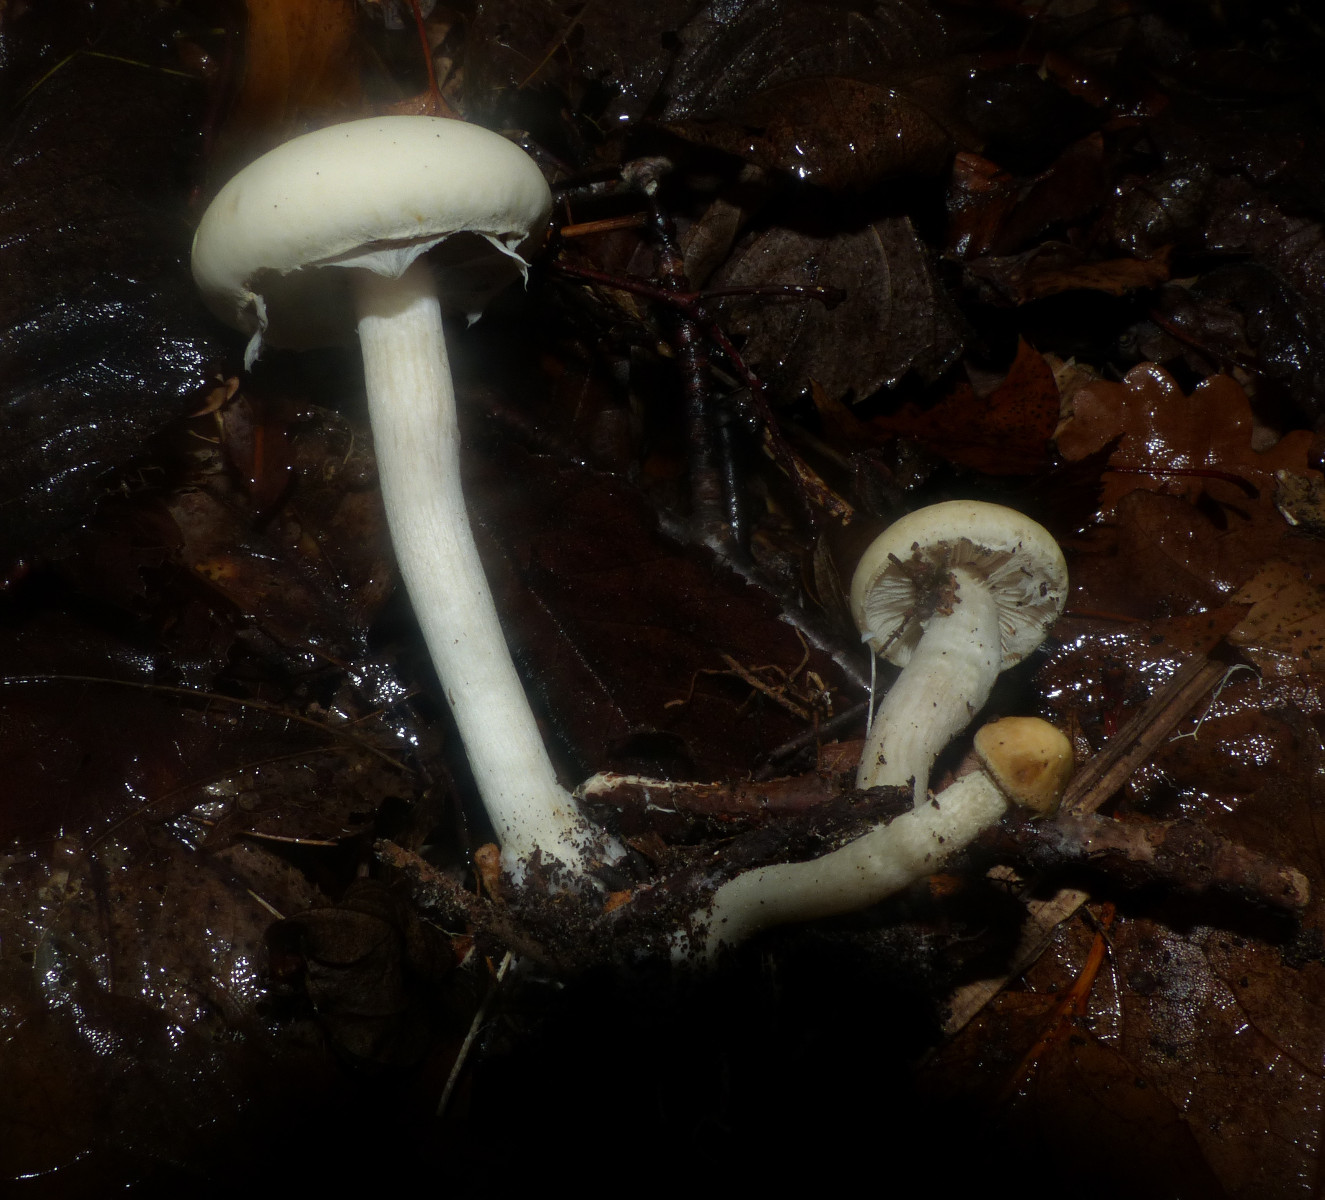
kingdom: Fungi
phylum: Basidiomycota
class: Agaricomycetes
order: Agaricales
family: Strophariaceae
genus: Agrocybe
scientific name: Agrocybe praecox
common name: tidlig agerhat
